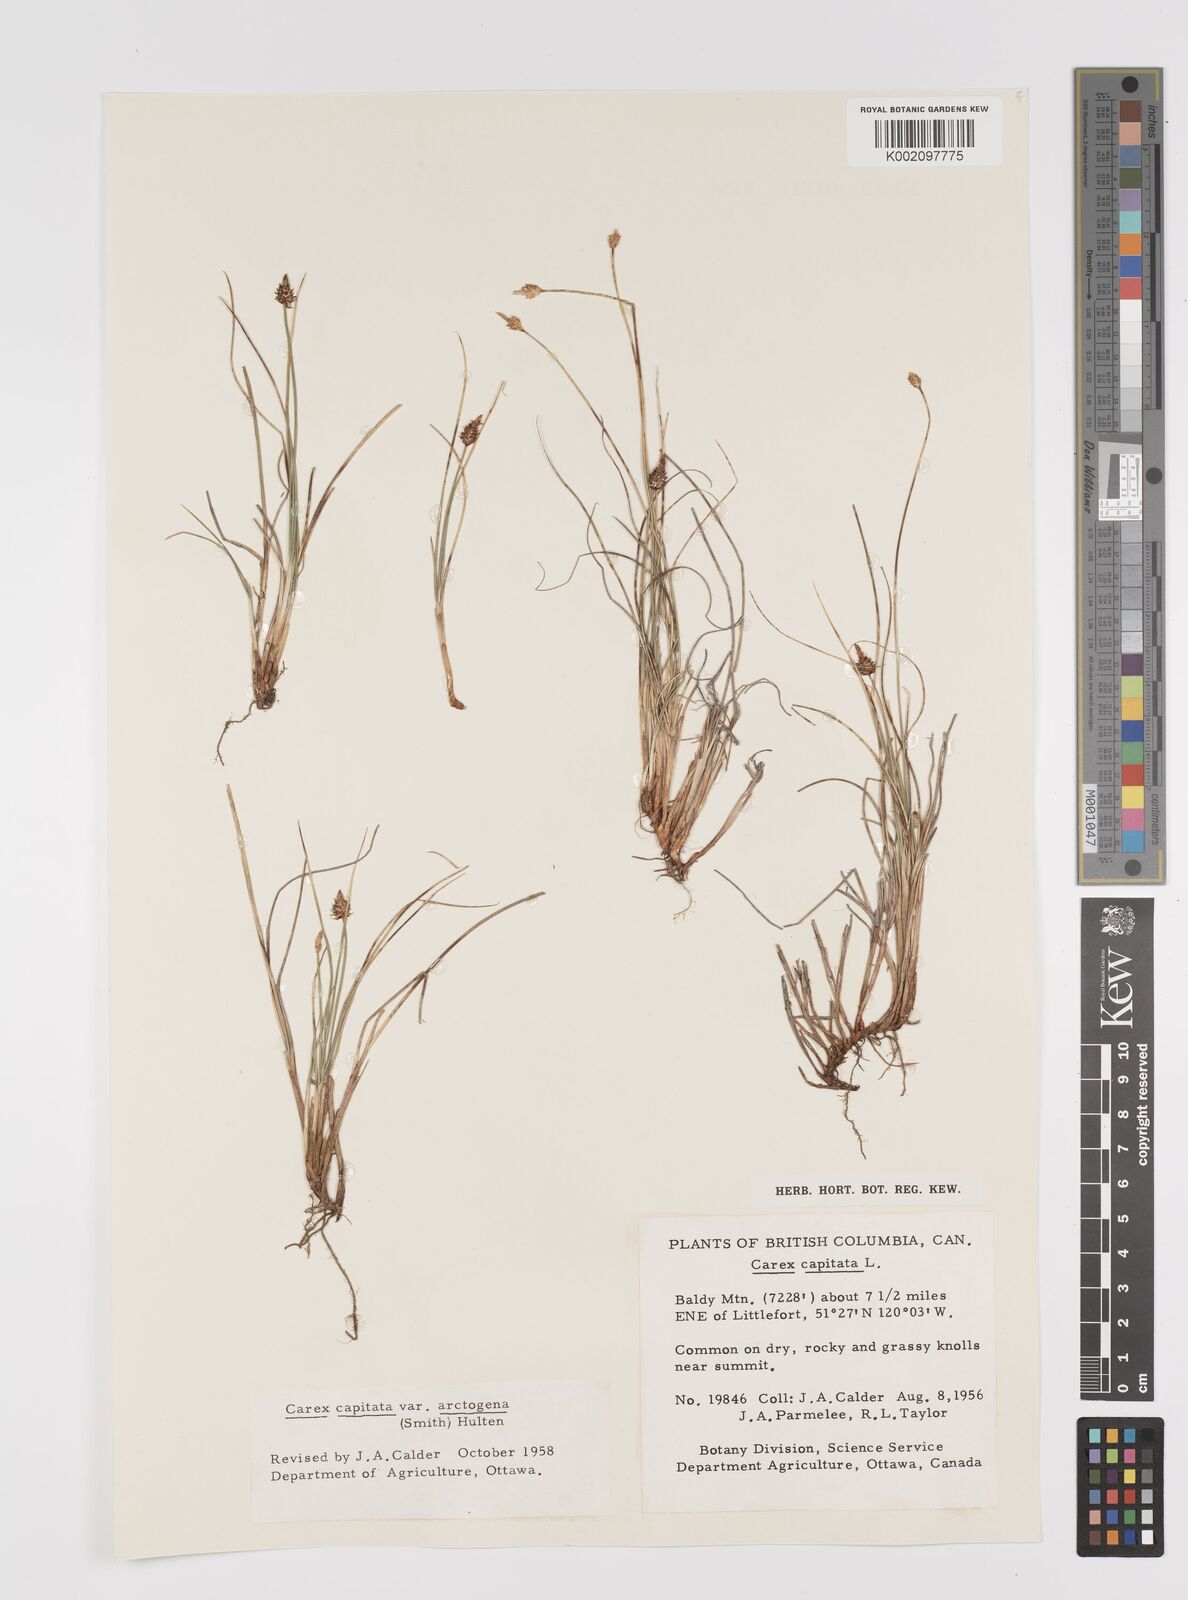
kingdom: Plantae
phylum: Tracheophyta
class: Liliopsida
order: Poales
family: Cyperaceae
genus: Carex
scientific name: Carex capitata
